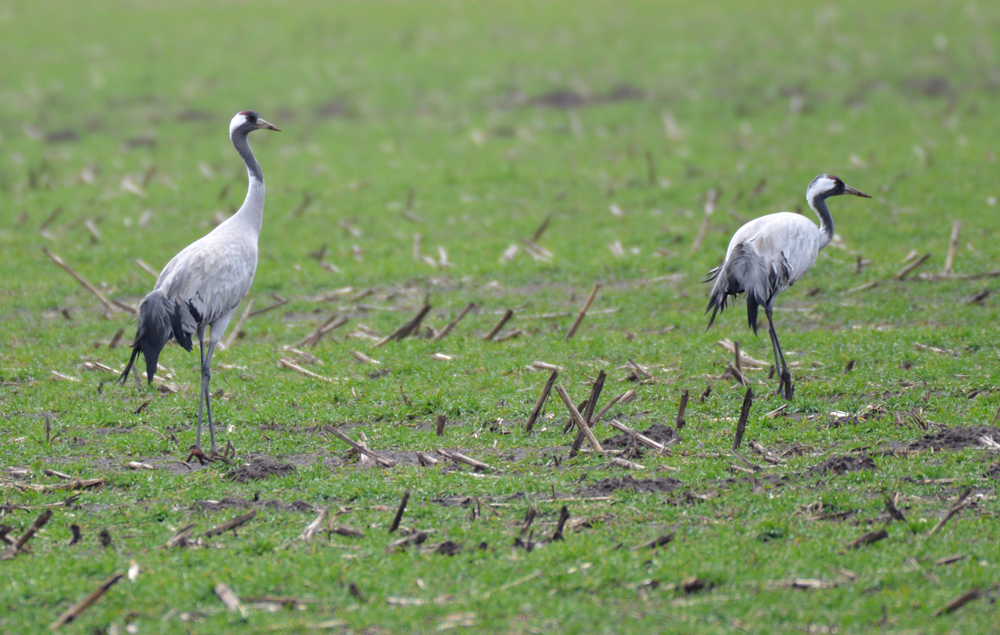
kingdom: Animalia
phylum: Chordata
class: Aves
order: Gruiformes
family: Gruidae
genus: Grus
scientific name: Grus grus
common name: Common crane
